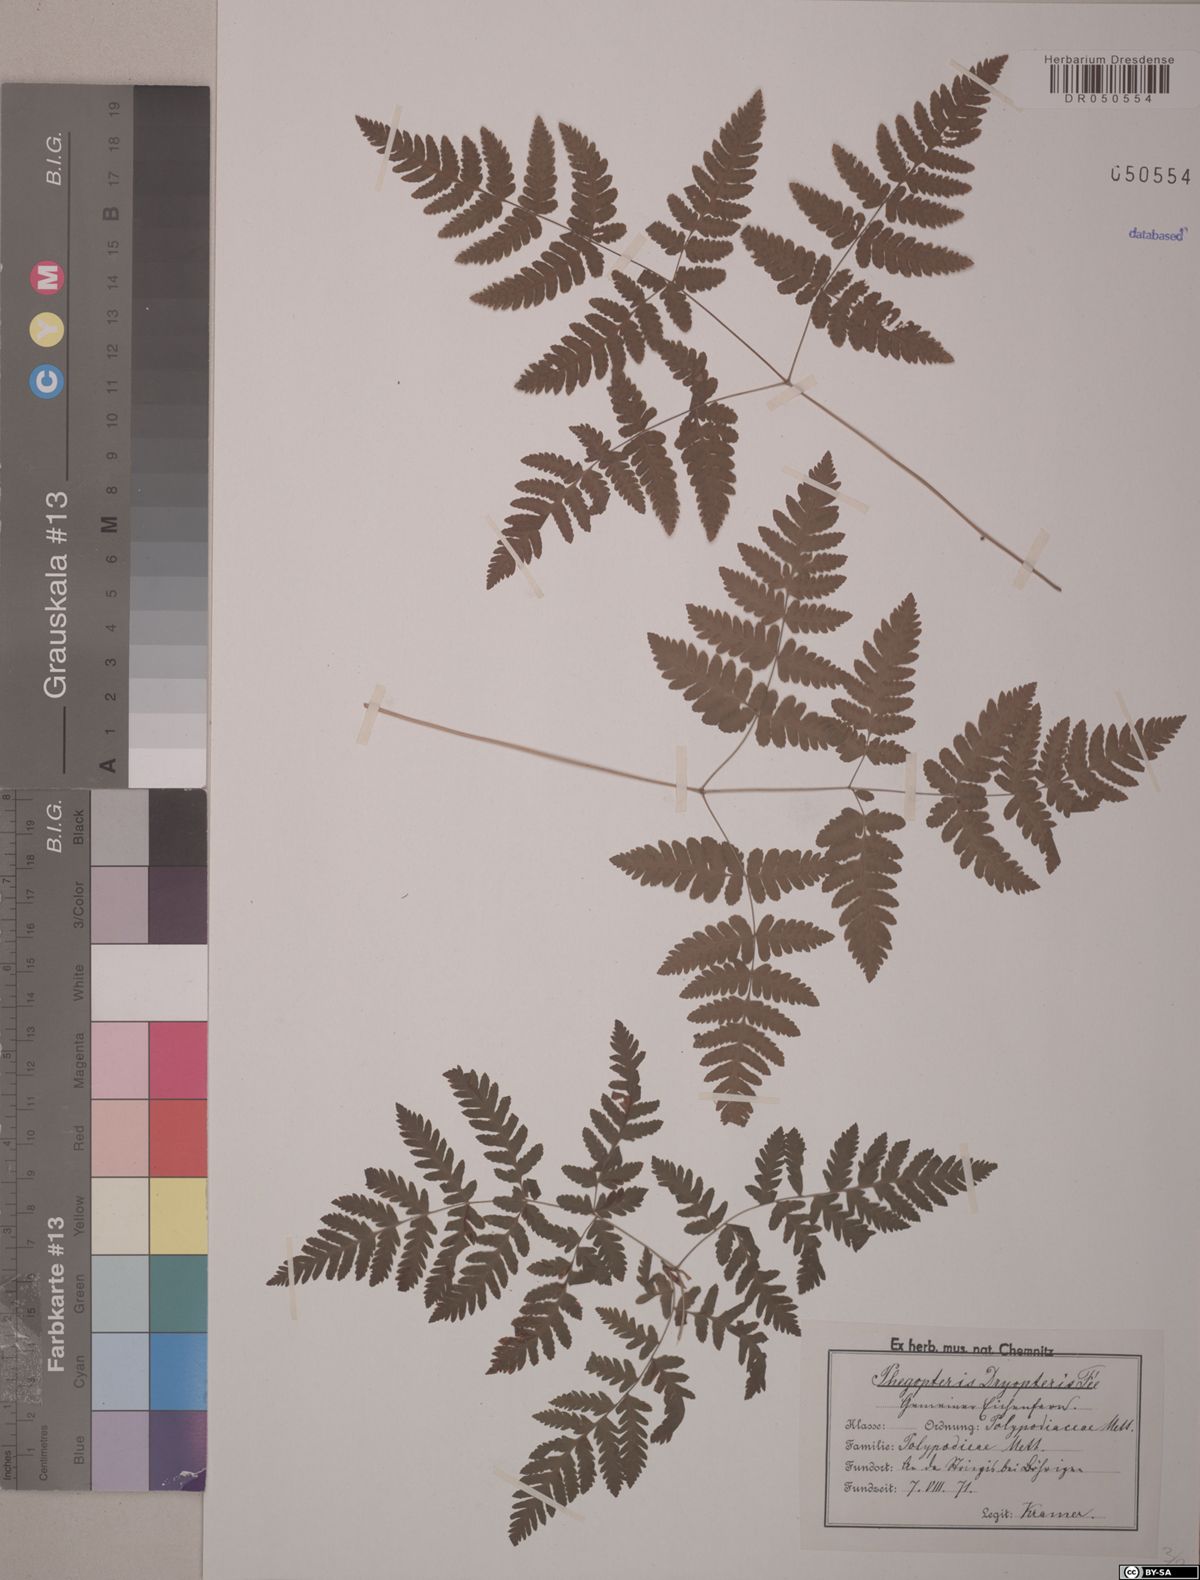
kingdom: Plantae
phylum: Tracheophyta
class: Polypodiopsida
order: Polypodiales
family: Cystopteridaceae
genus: Gymnocarpium
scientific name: Gymnocarpium dryopteris
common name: Oak fern
